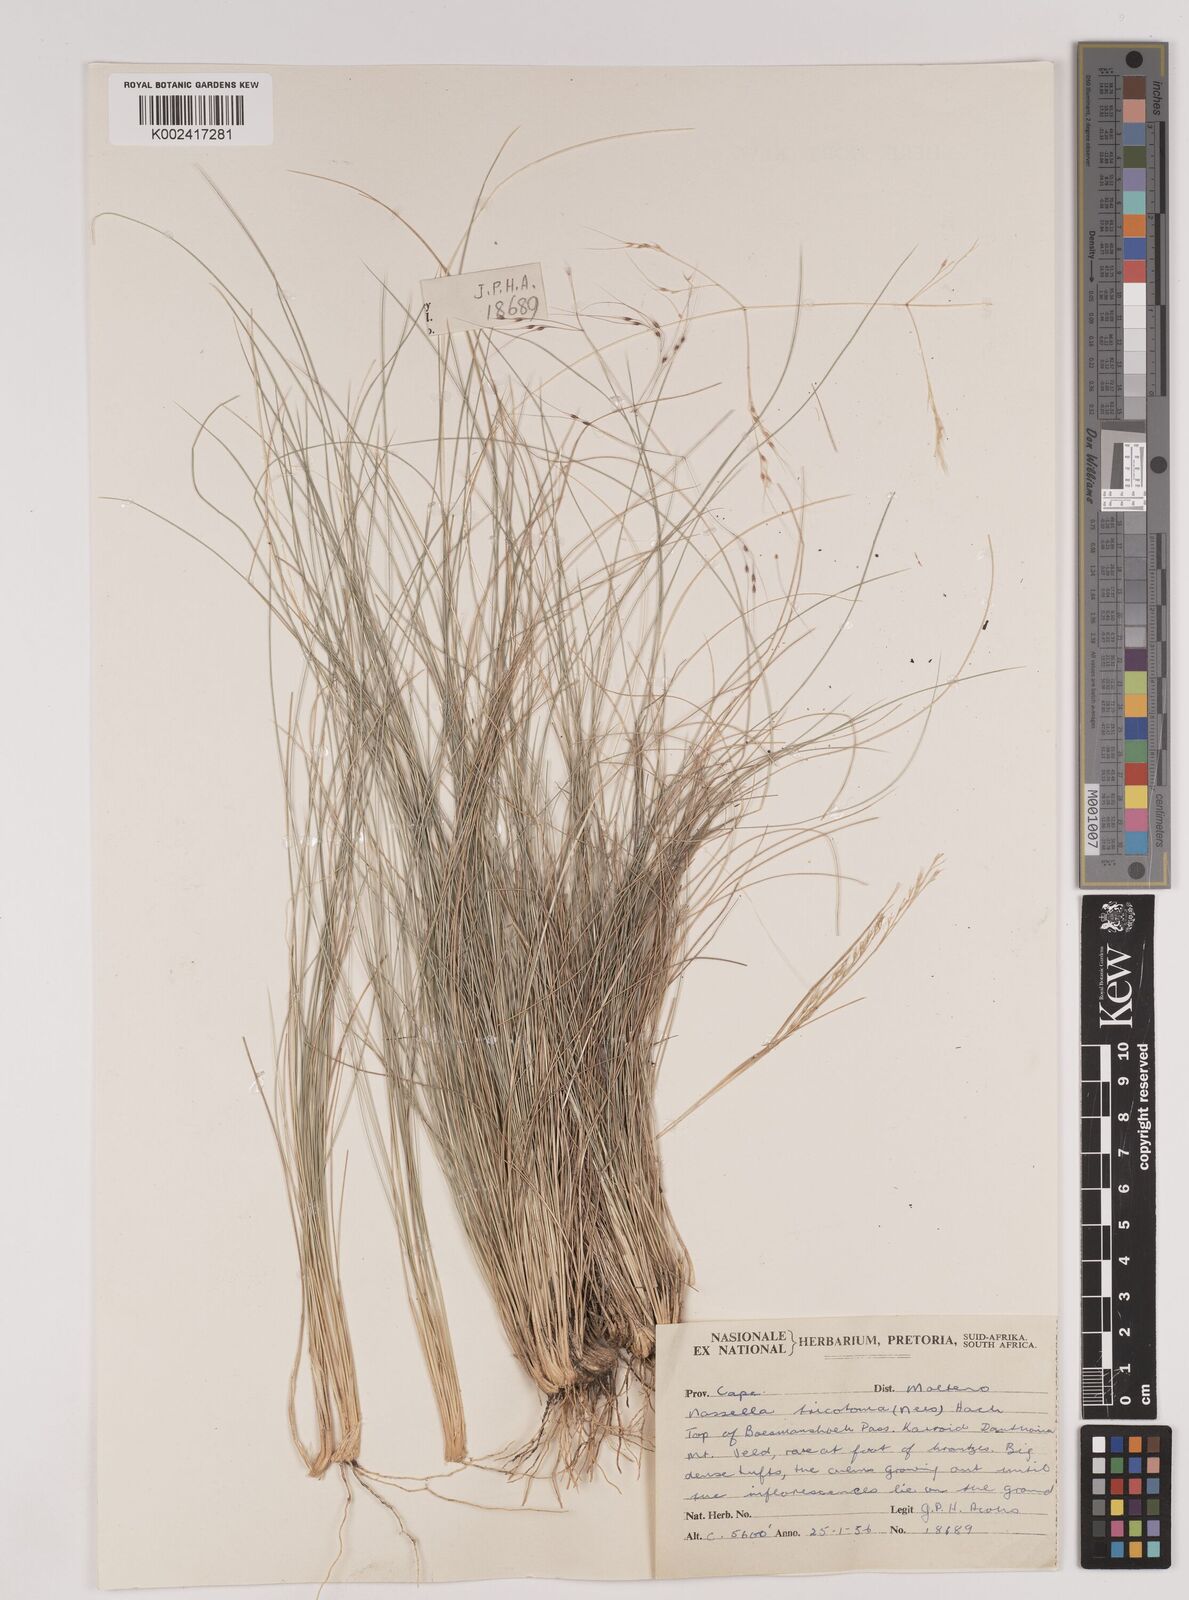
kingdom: Plantae
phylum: Tracheophyta
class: Liliopsida
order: Poales
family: Poaceae
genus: Nassella
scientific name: Nassella trichotoma
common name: Serrated tussock grass
